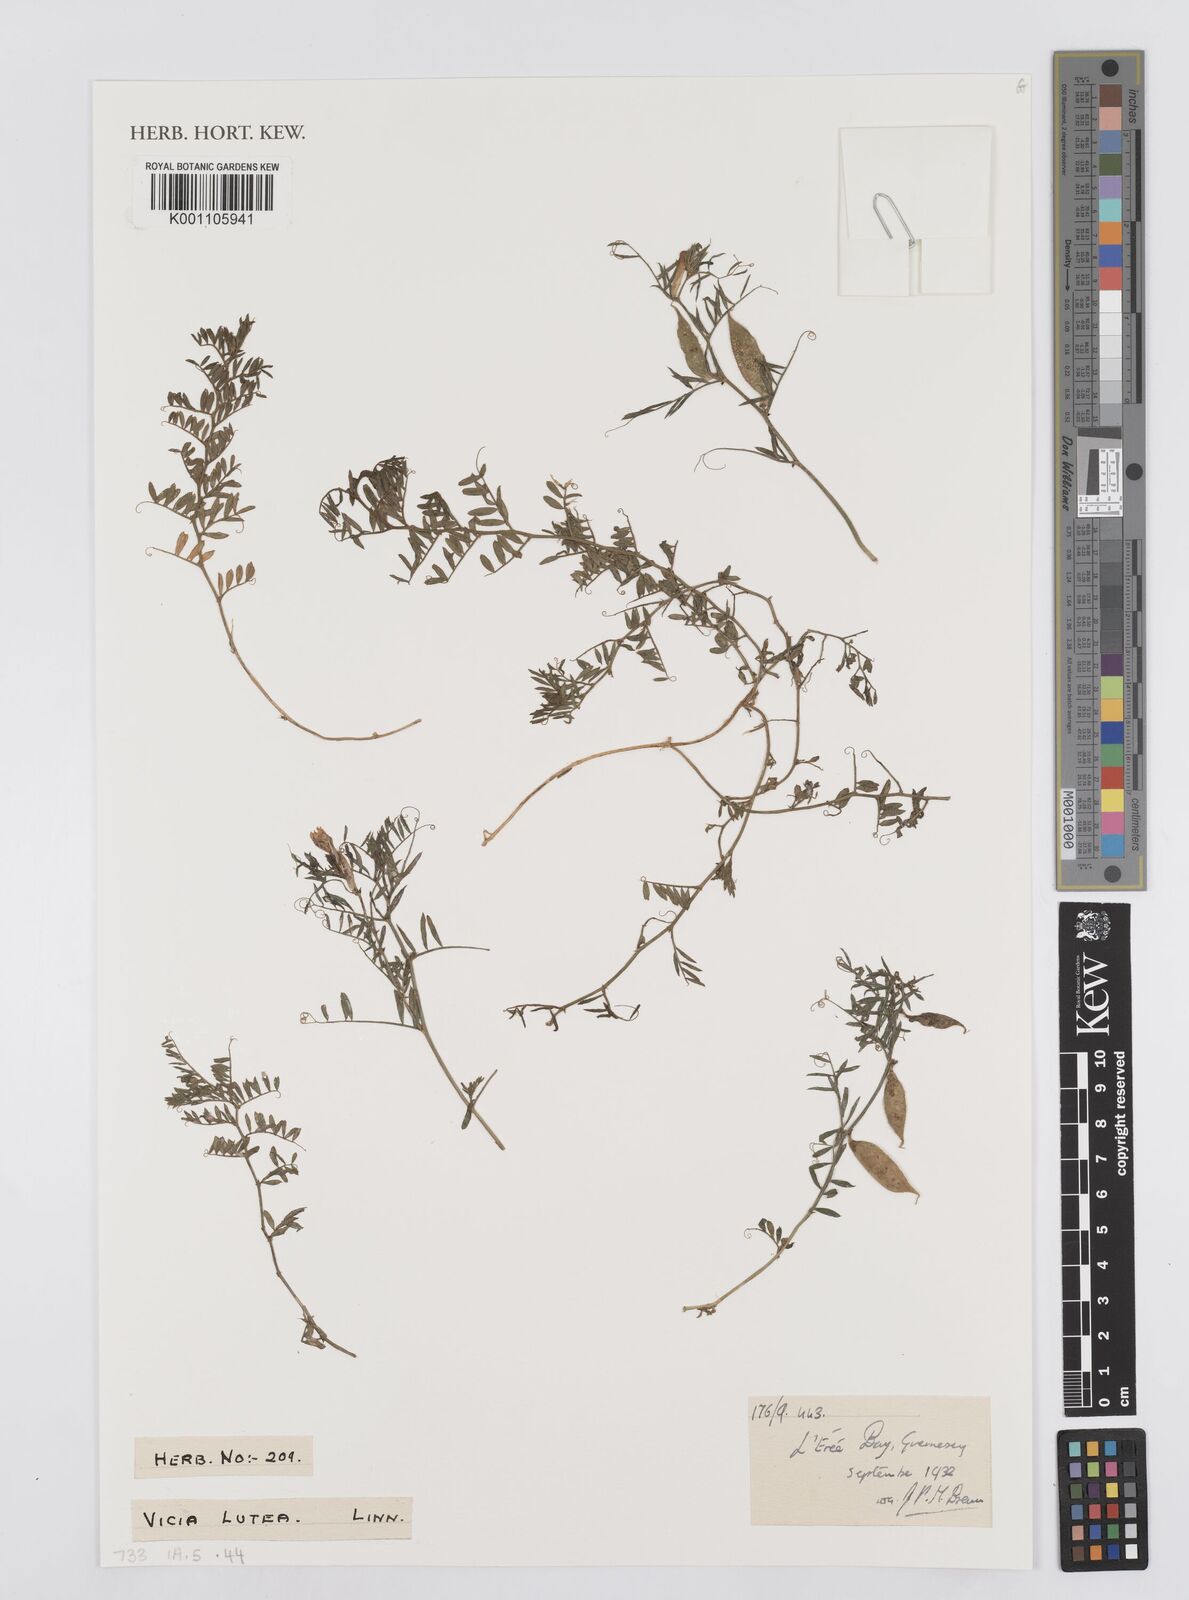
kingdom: Plantae
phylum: Tracheophyta
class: Magnoliopsida
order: Fabales
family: Fabaceae
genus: Vicia
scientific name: Vicia lutea
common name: Smooth yellow vetch
